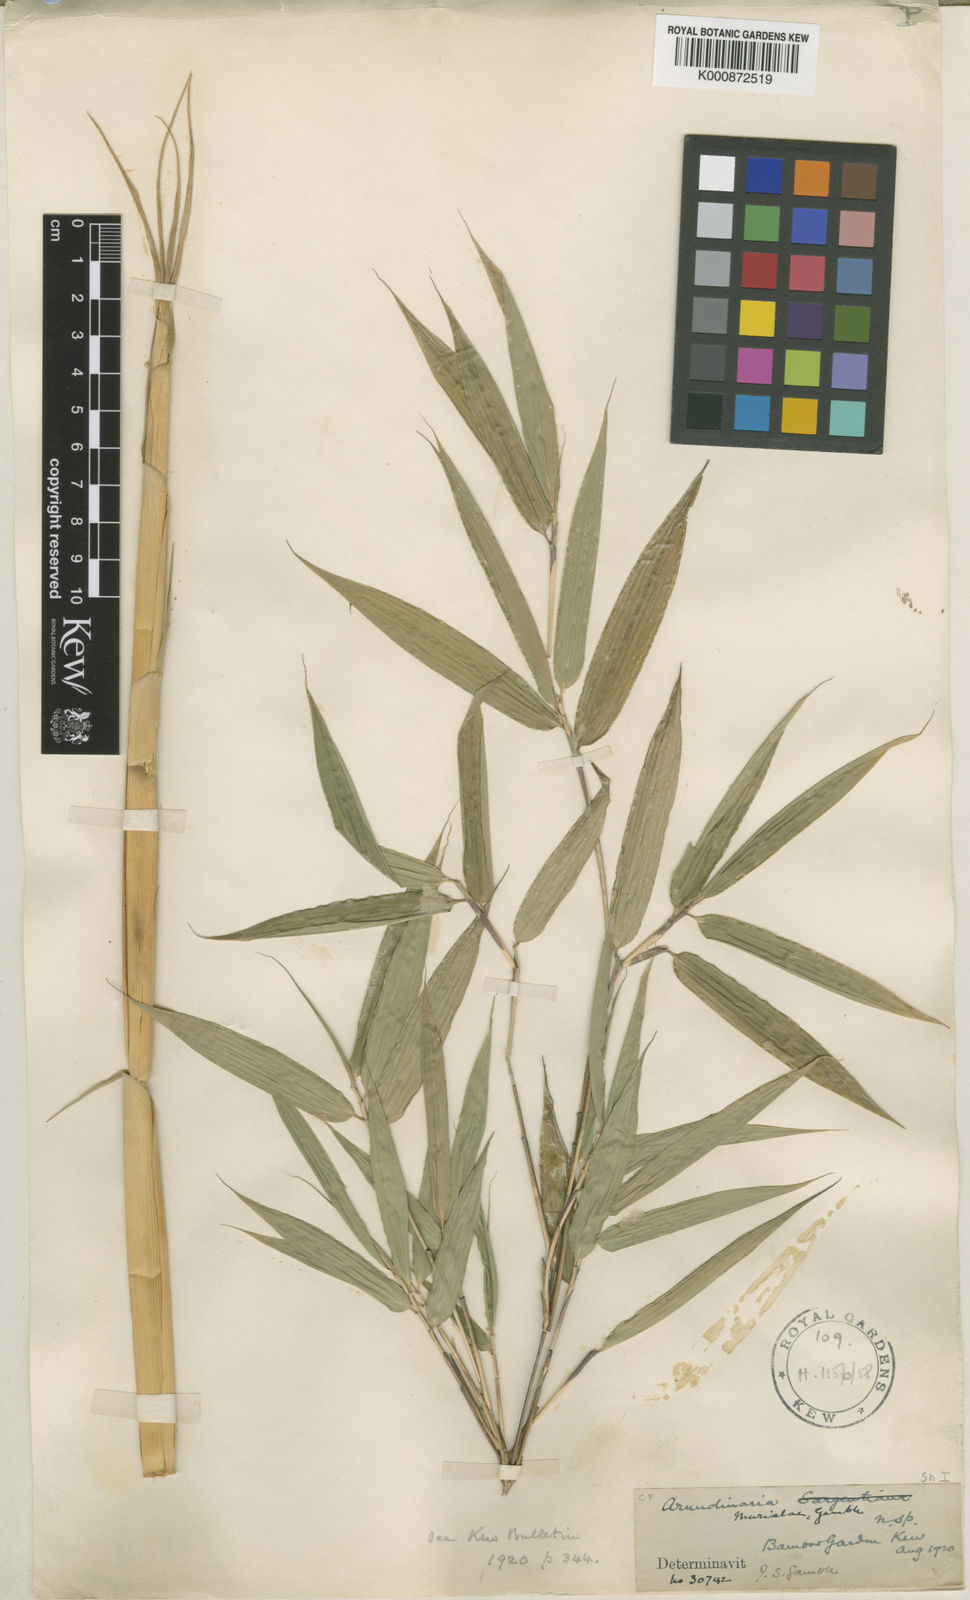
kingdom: Plantae
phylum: Tracheophyta
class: Liliopsida
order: Poales
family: Poaceae
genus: Fargesia
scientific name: Fargesia murielae
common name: Umbrella bamboo
